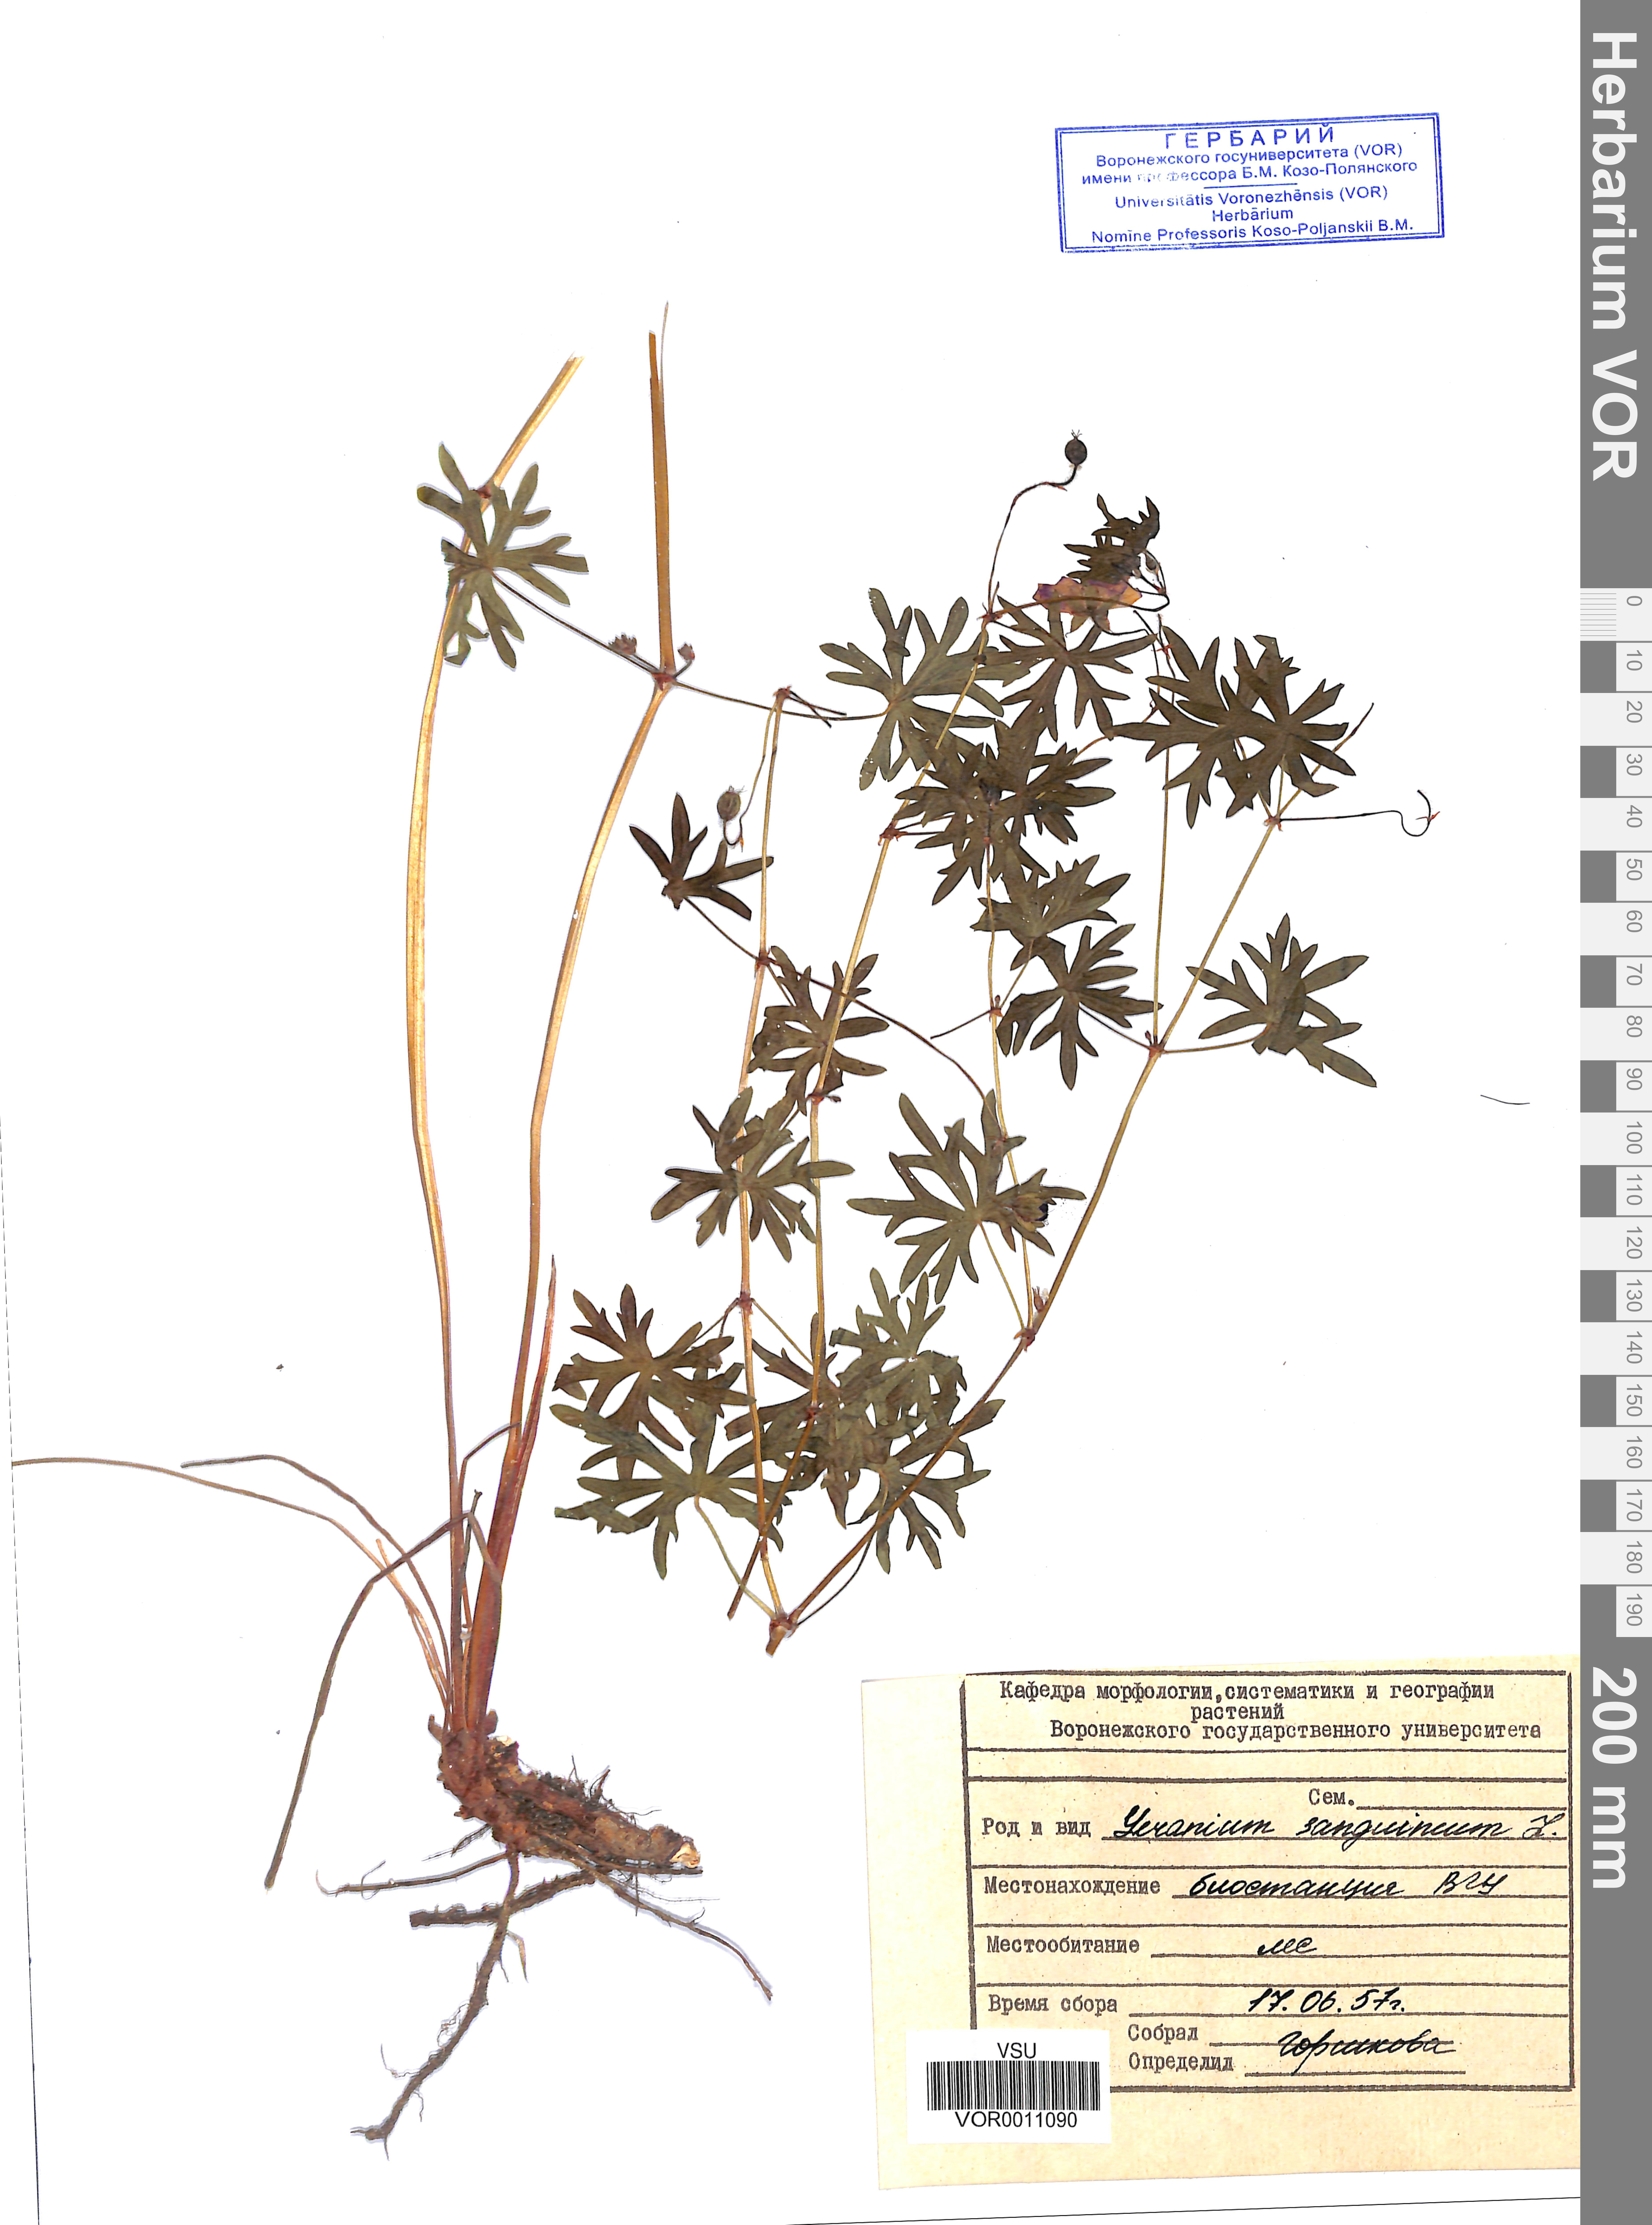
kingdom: Plantae
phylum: Tracheophyta
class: Magnoliopsida
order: Geraniales
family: Geraniaceae
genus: Geranium
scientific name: Geranium sanguineum
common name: Bloody crane's-bill
